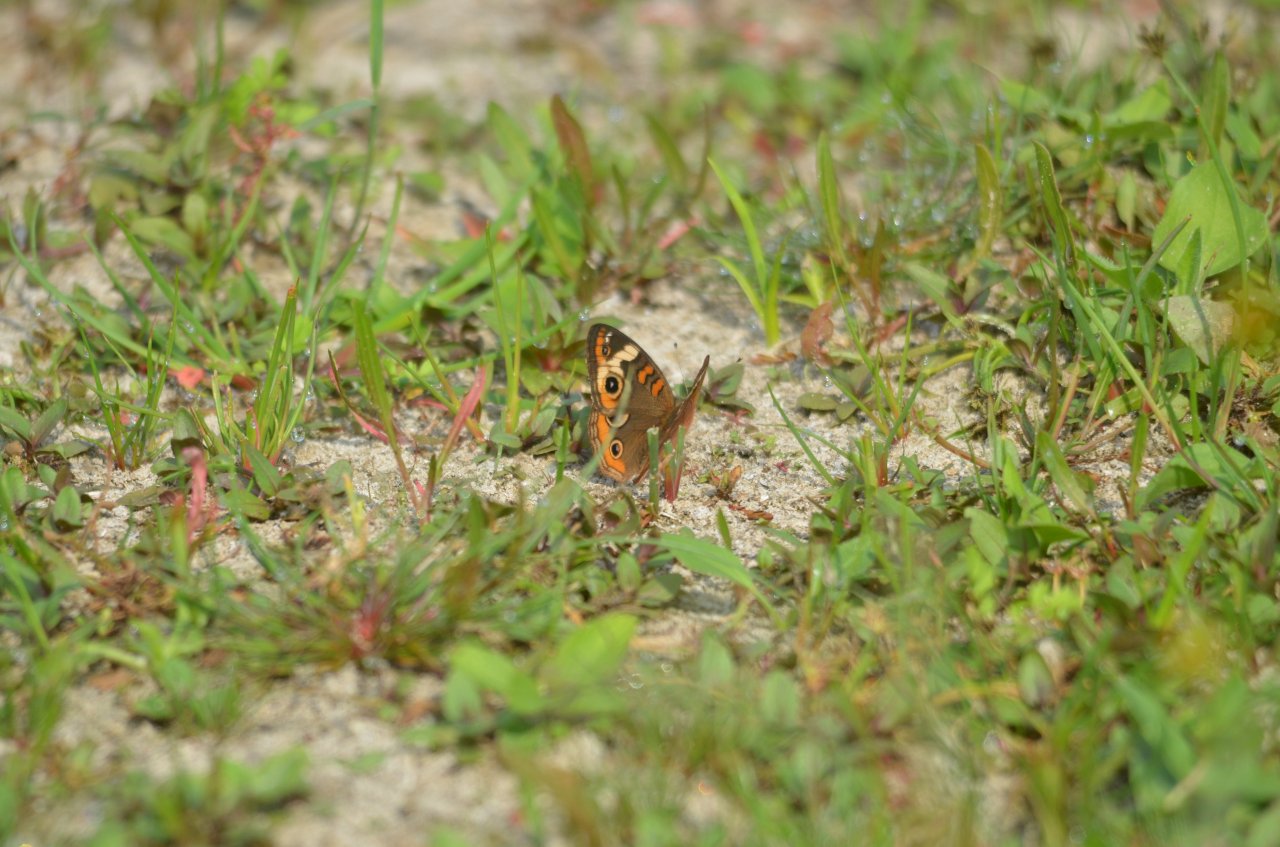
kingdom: Animalia
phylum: Arthropoda
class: Insecta
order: Lepidoptera
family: Nymphalidae
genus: Junonia
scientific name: Junonia coenia
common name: Common Buckeye
